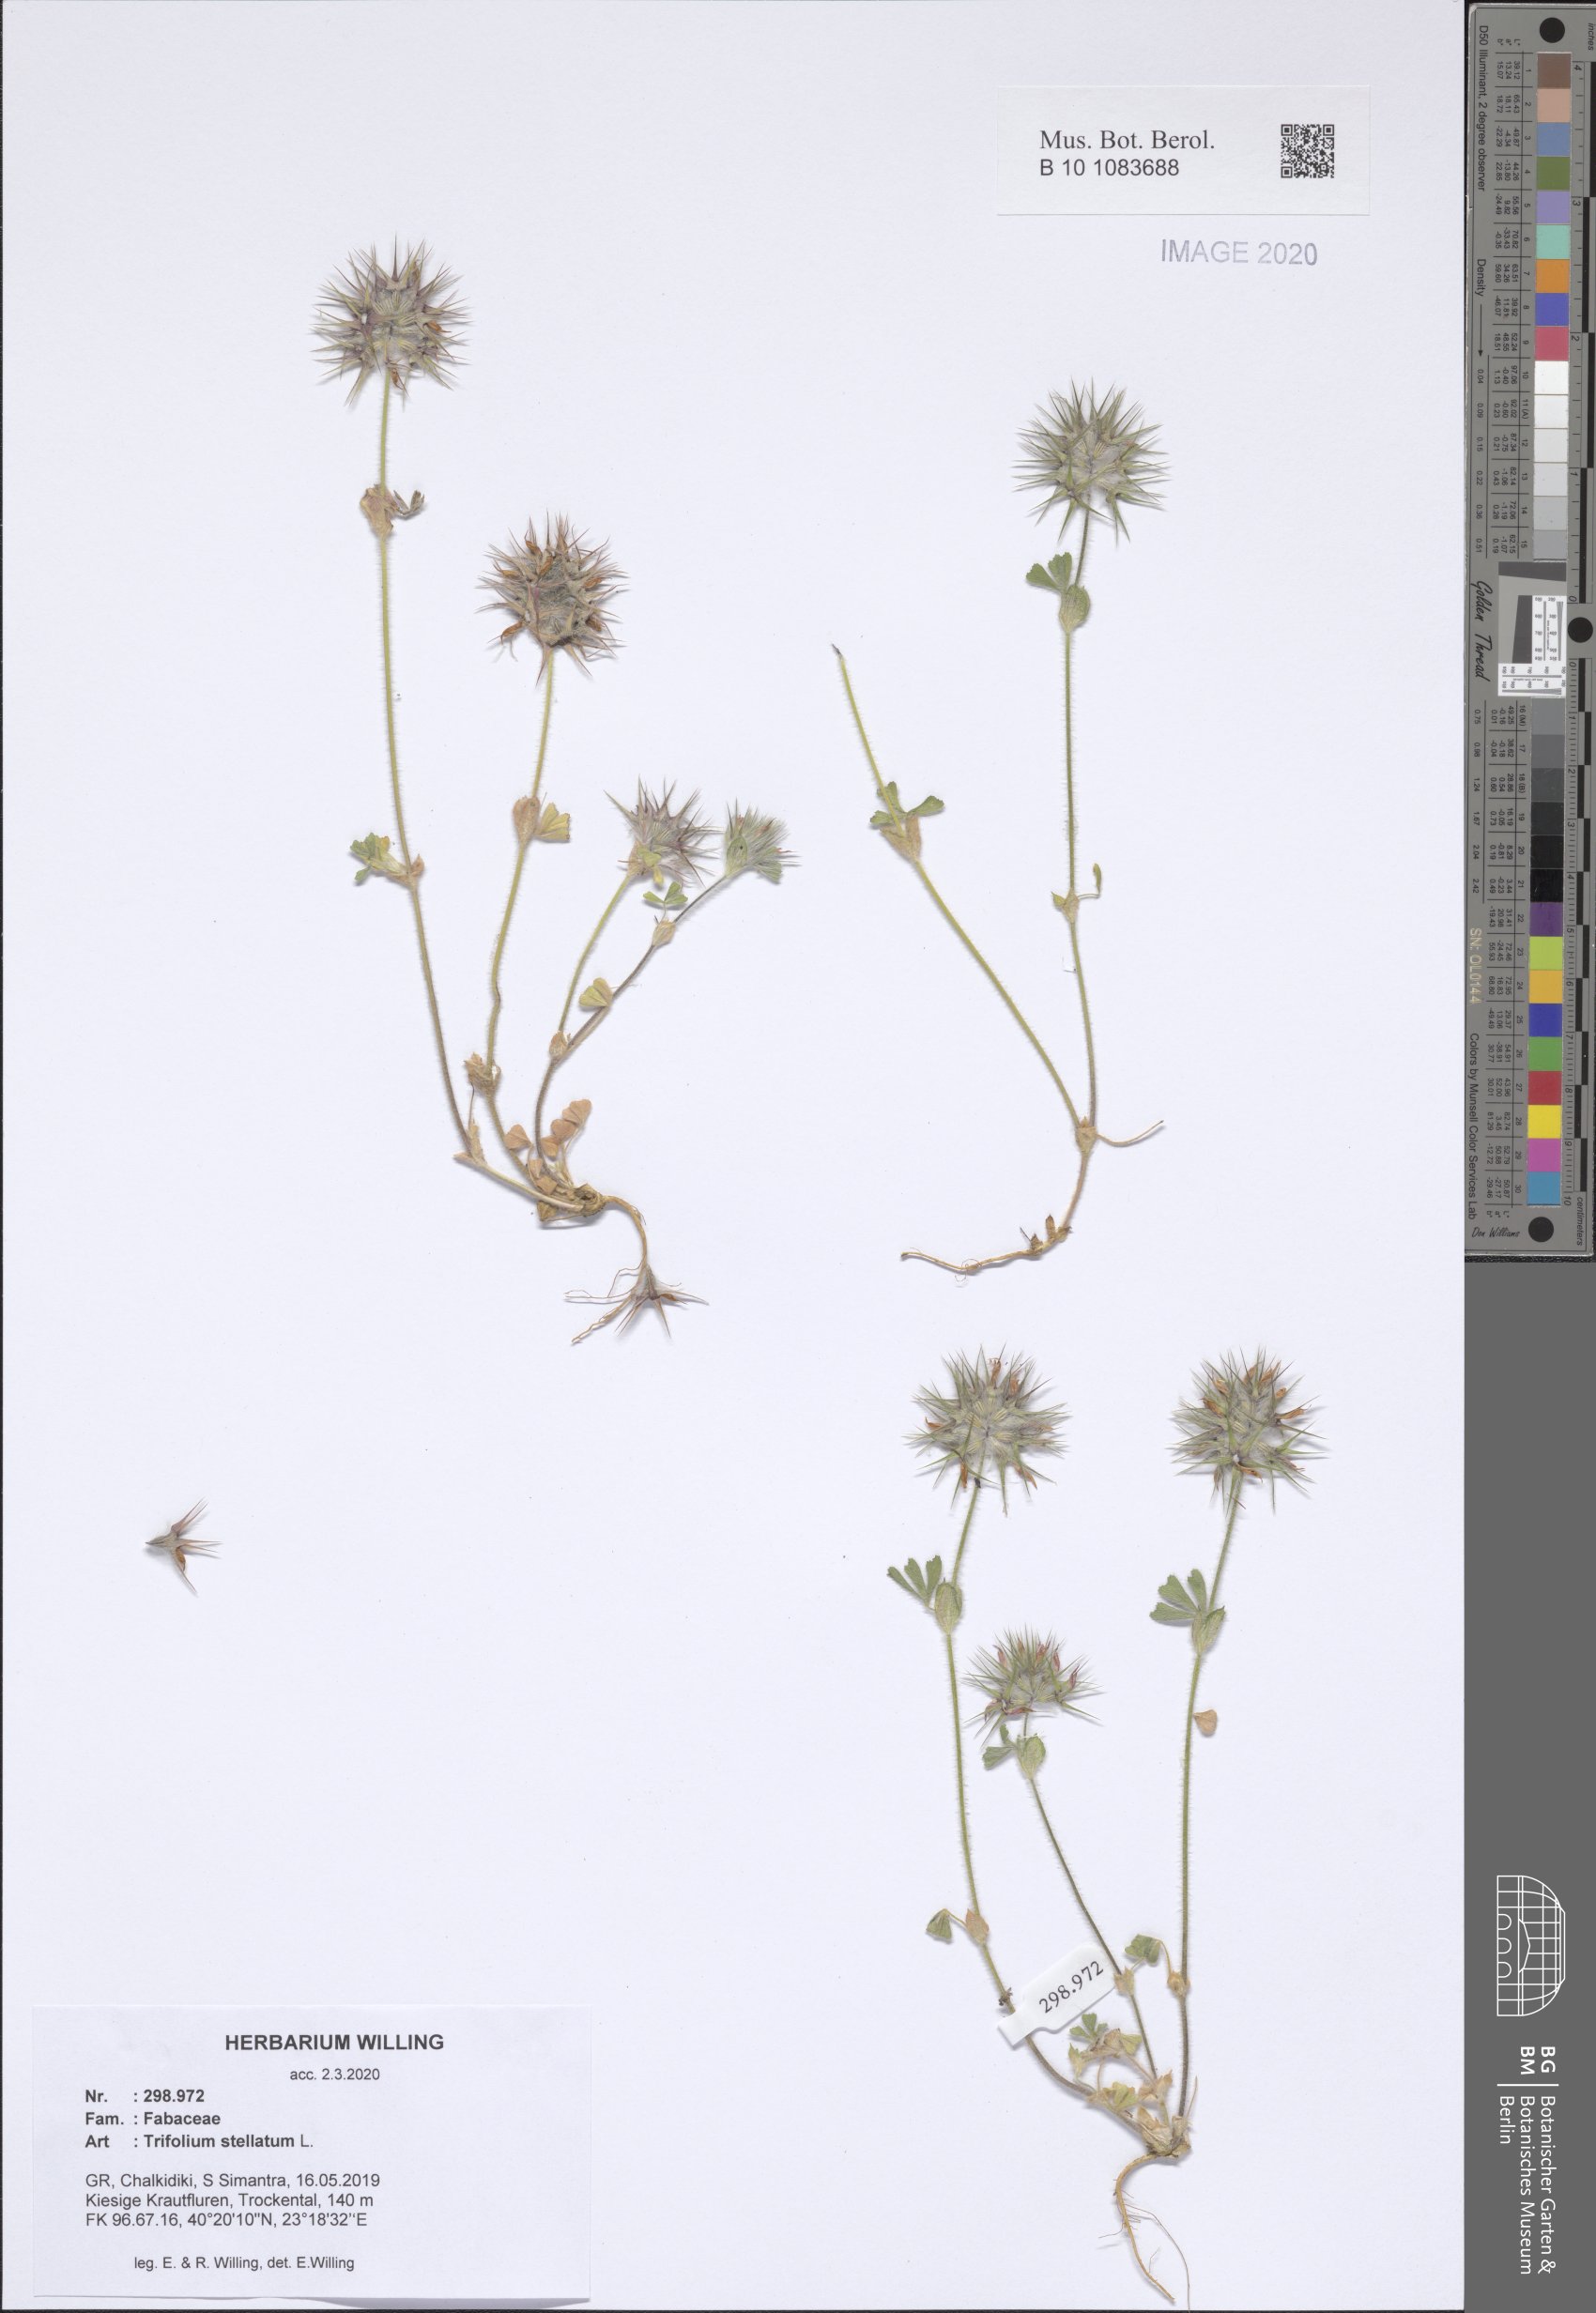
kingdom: Plantae
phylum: Tracheophyta
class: Magnoliopsida
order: Fabales
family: Fabaceae
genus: Trifolium
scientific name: Trifolium stellatum
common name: Starry clover
